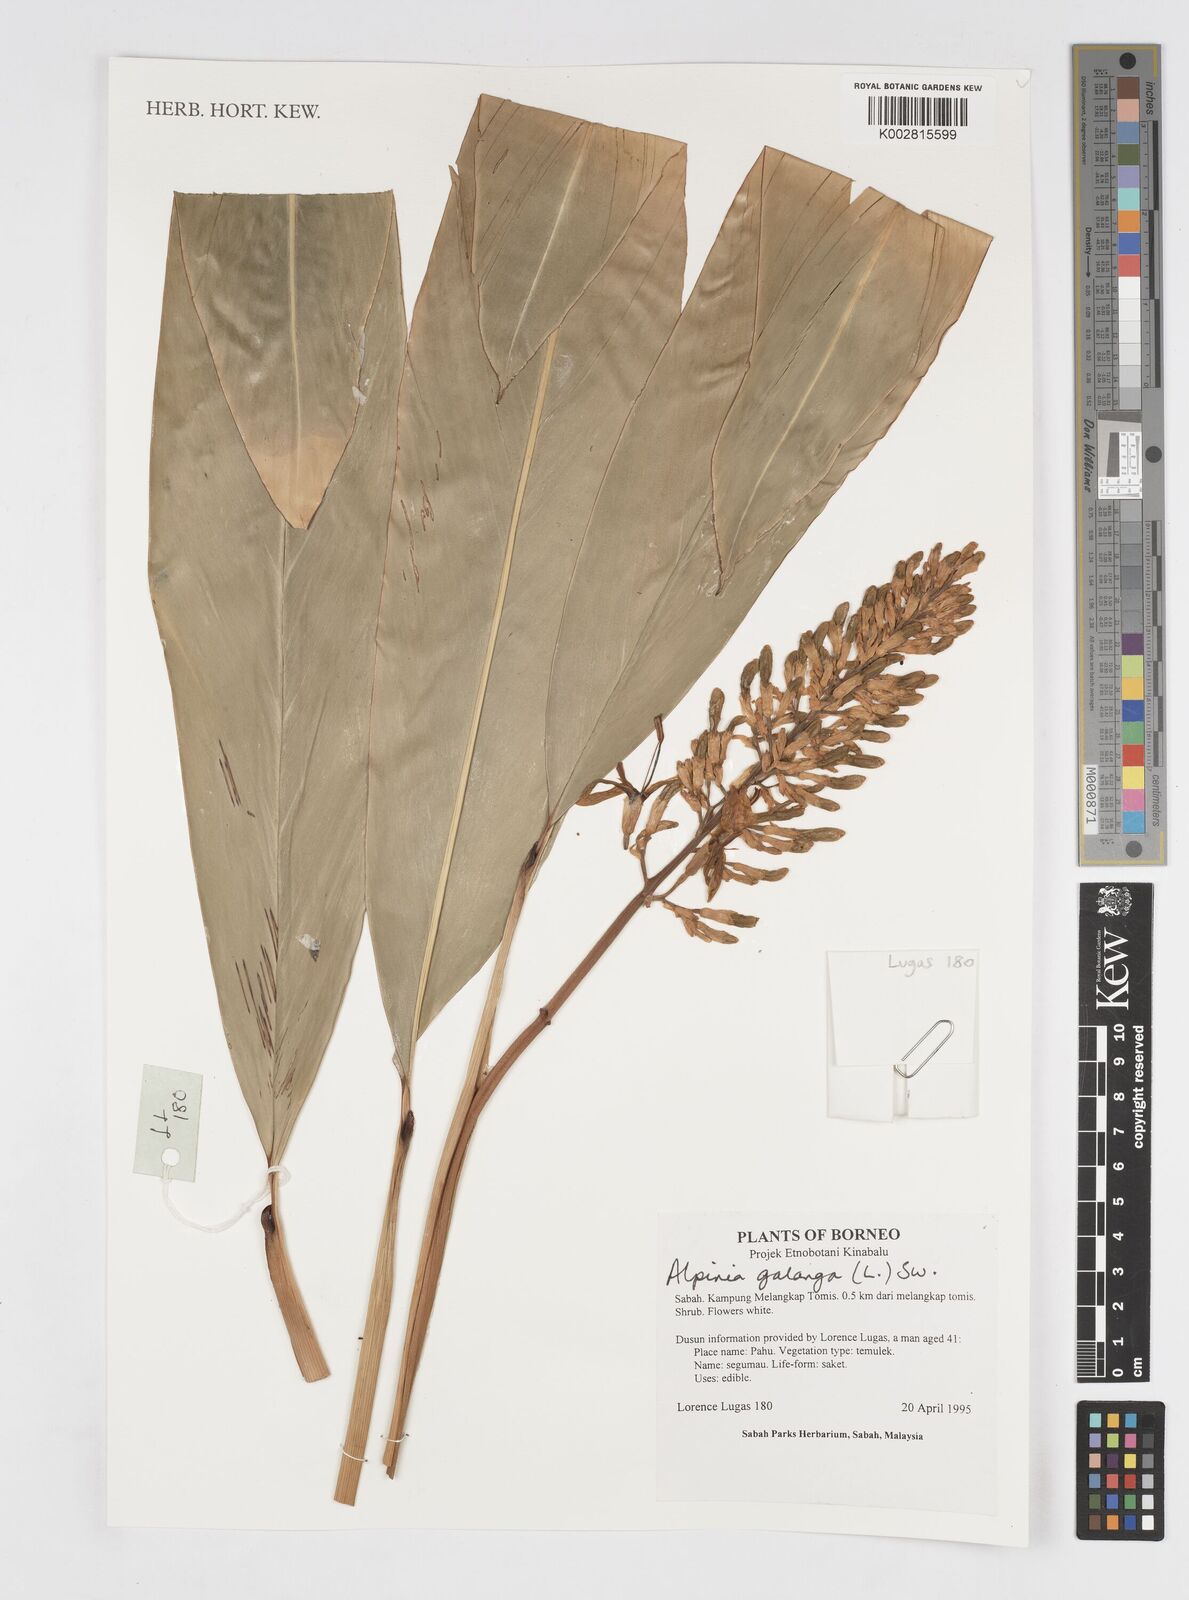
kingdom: Plantae
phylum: Tracheophyta
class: Liliopsida
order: Zingiberales
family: Zingiberaceae
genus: Alpinia
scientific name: Alpinia galanga
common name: Siamese-ginger
